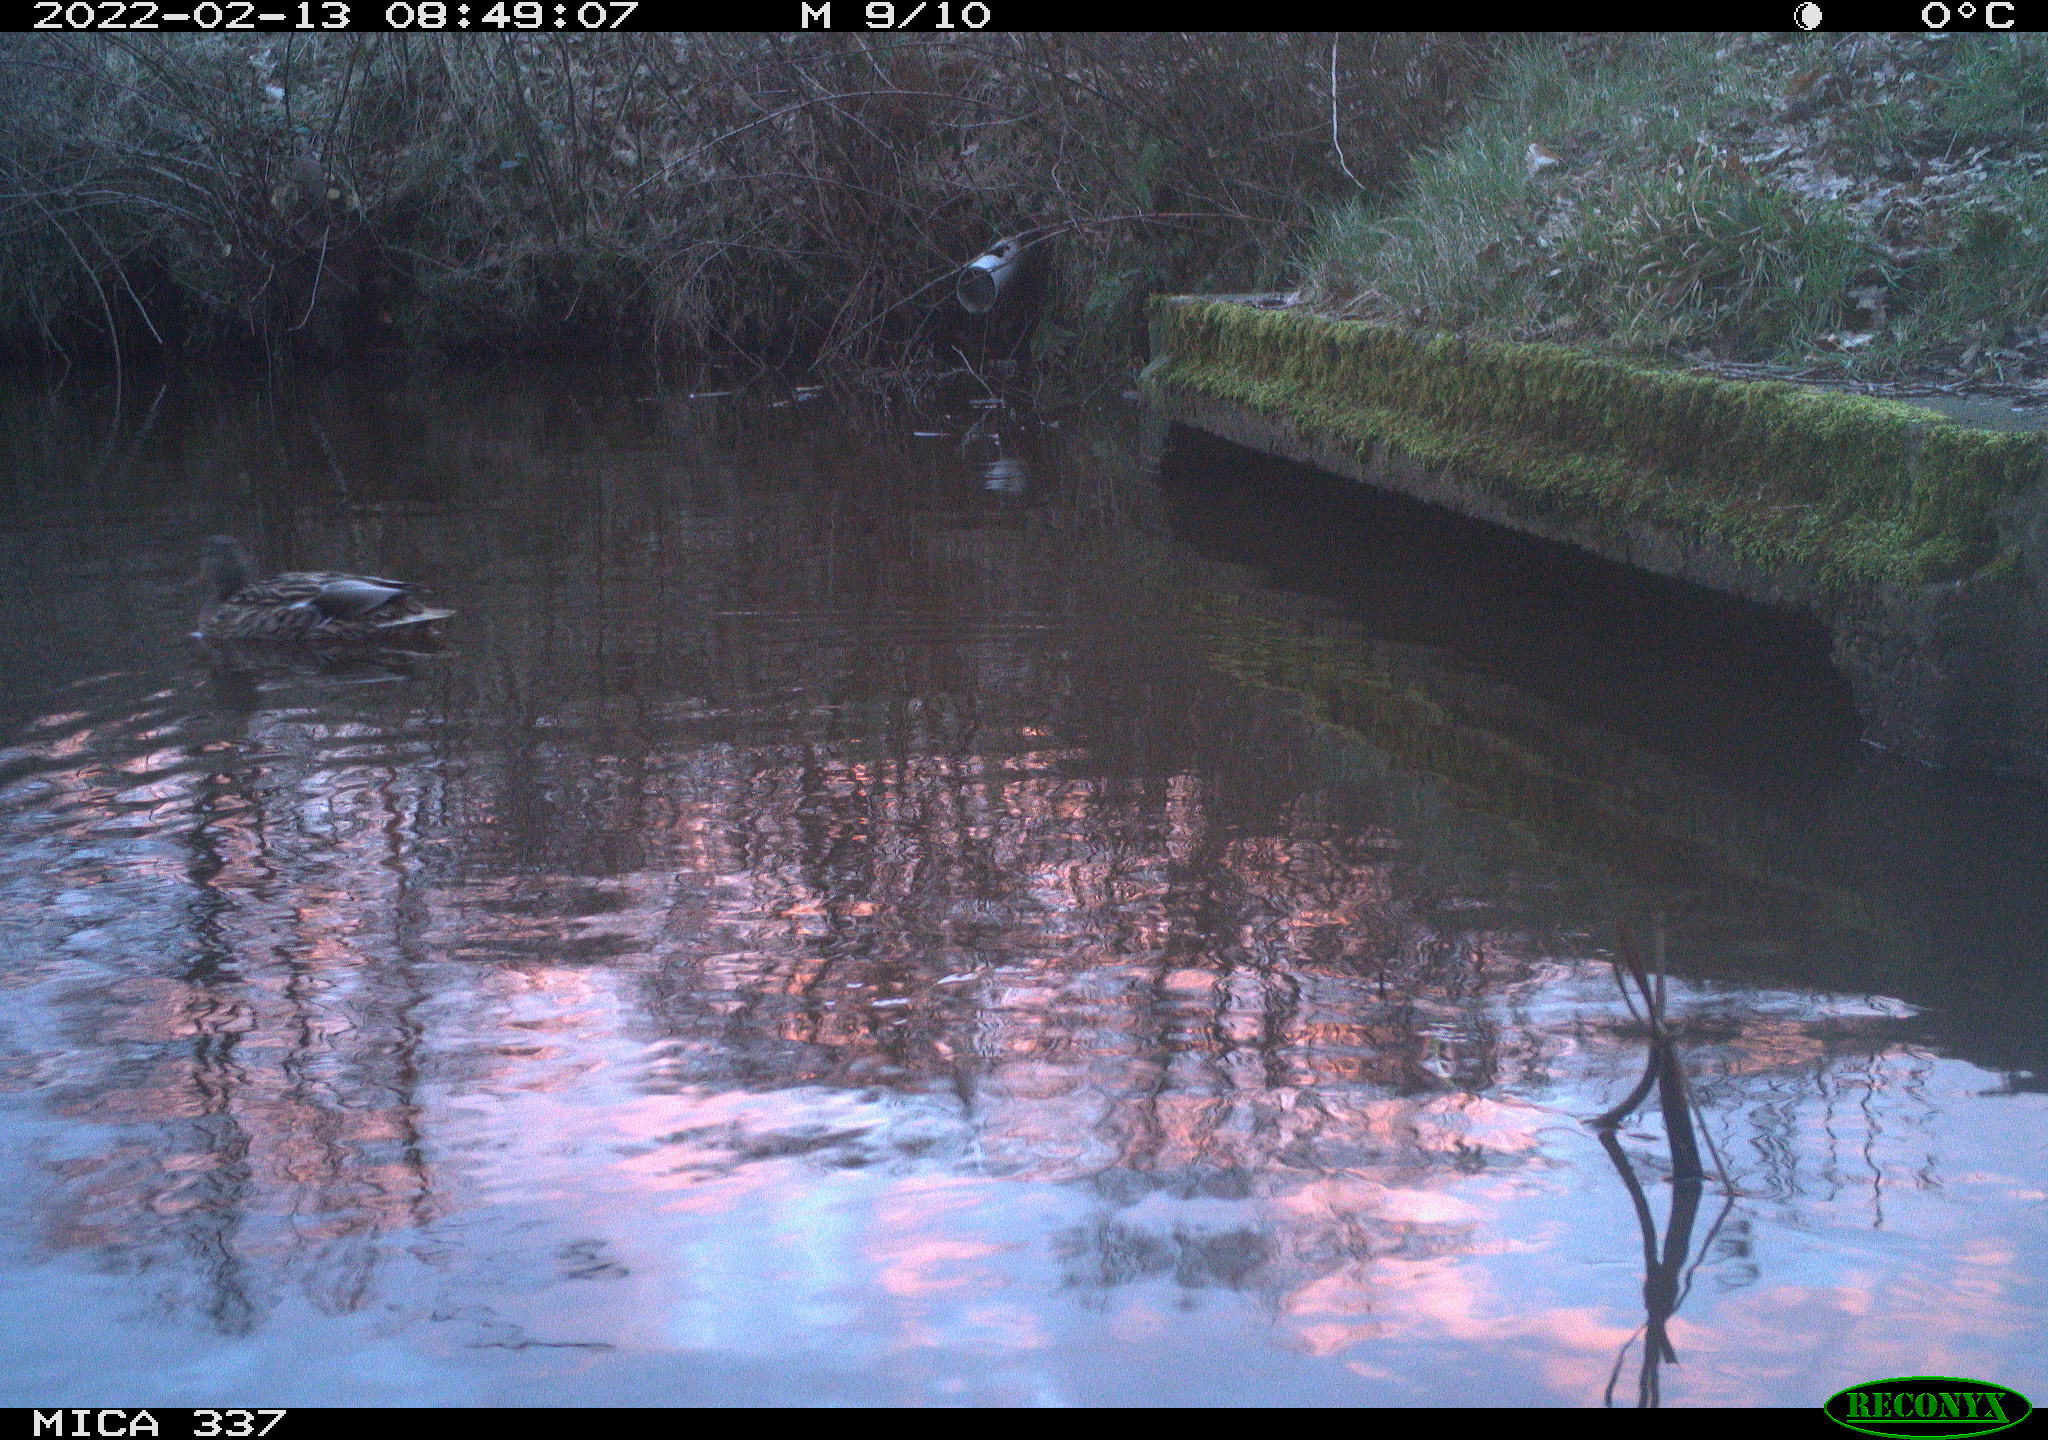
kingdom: Animalia
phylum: Chordata
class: Aves
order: Anseriformes
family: Anatidae
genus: Anas
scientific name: Anas platyrhynchos
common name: Mallard
